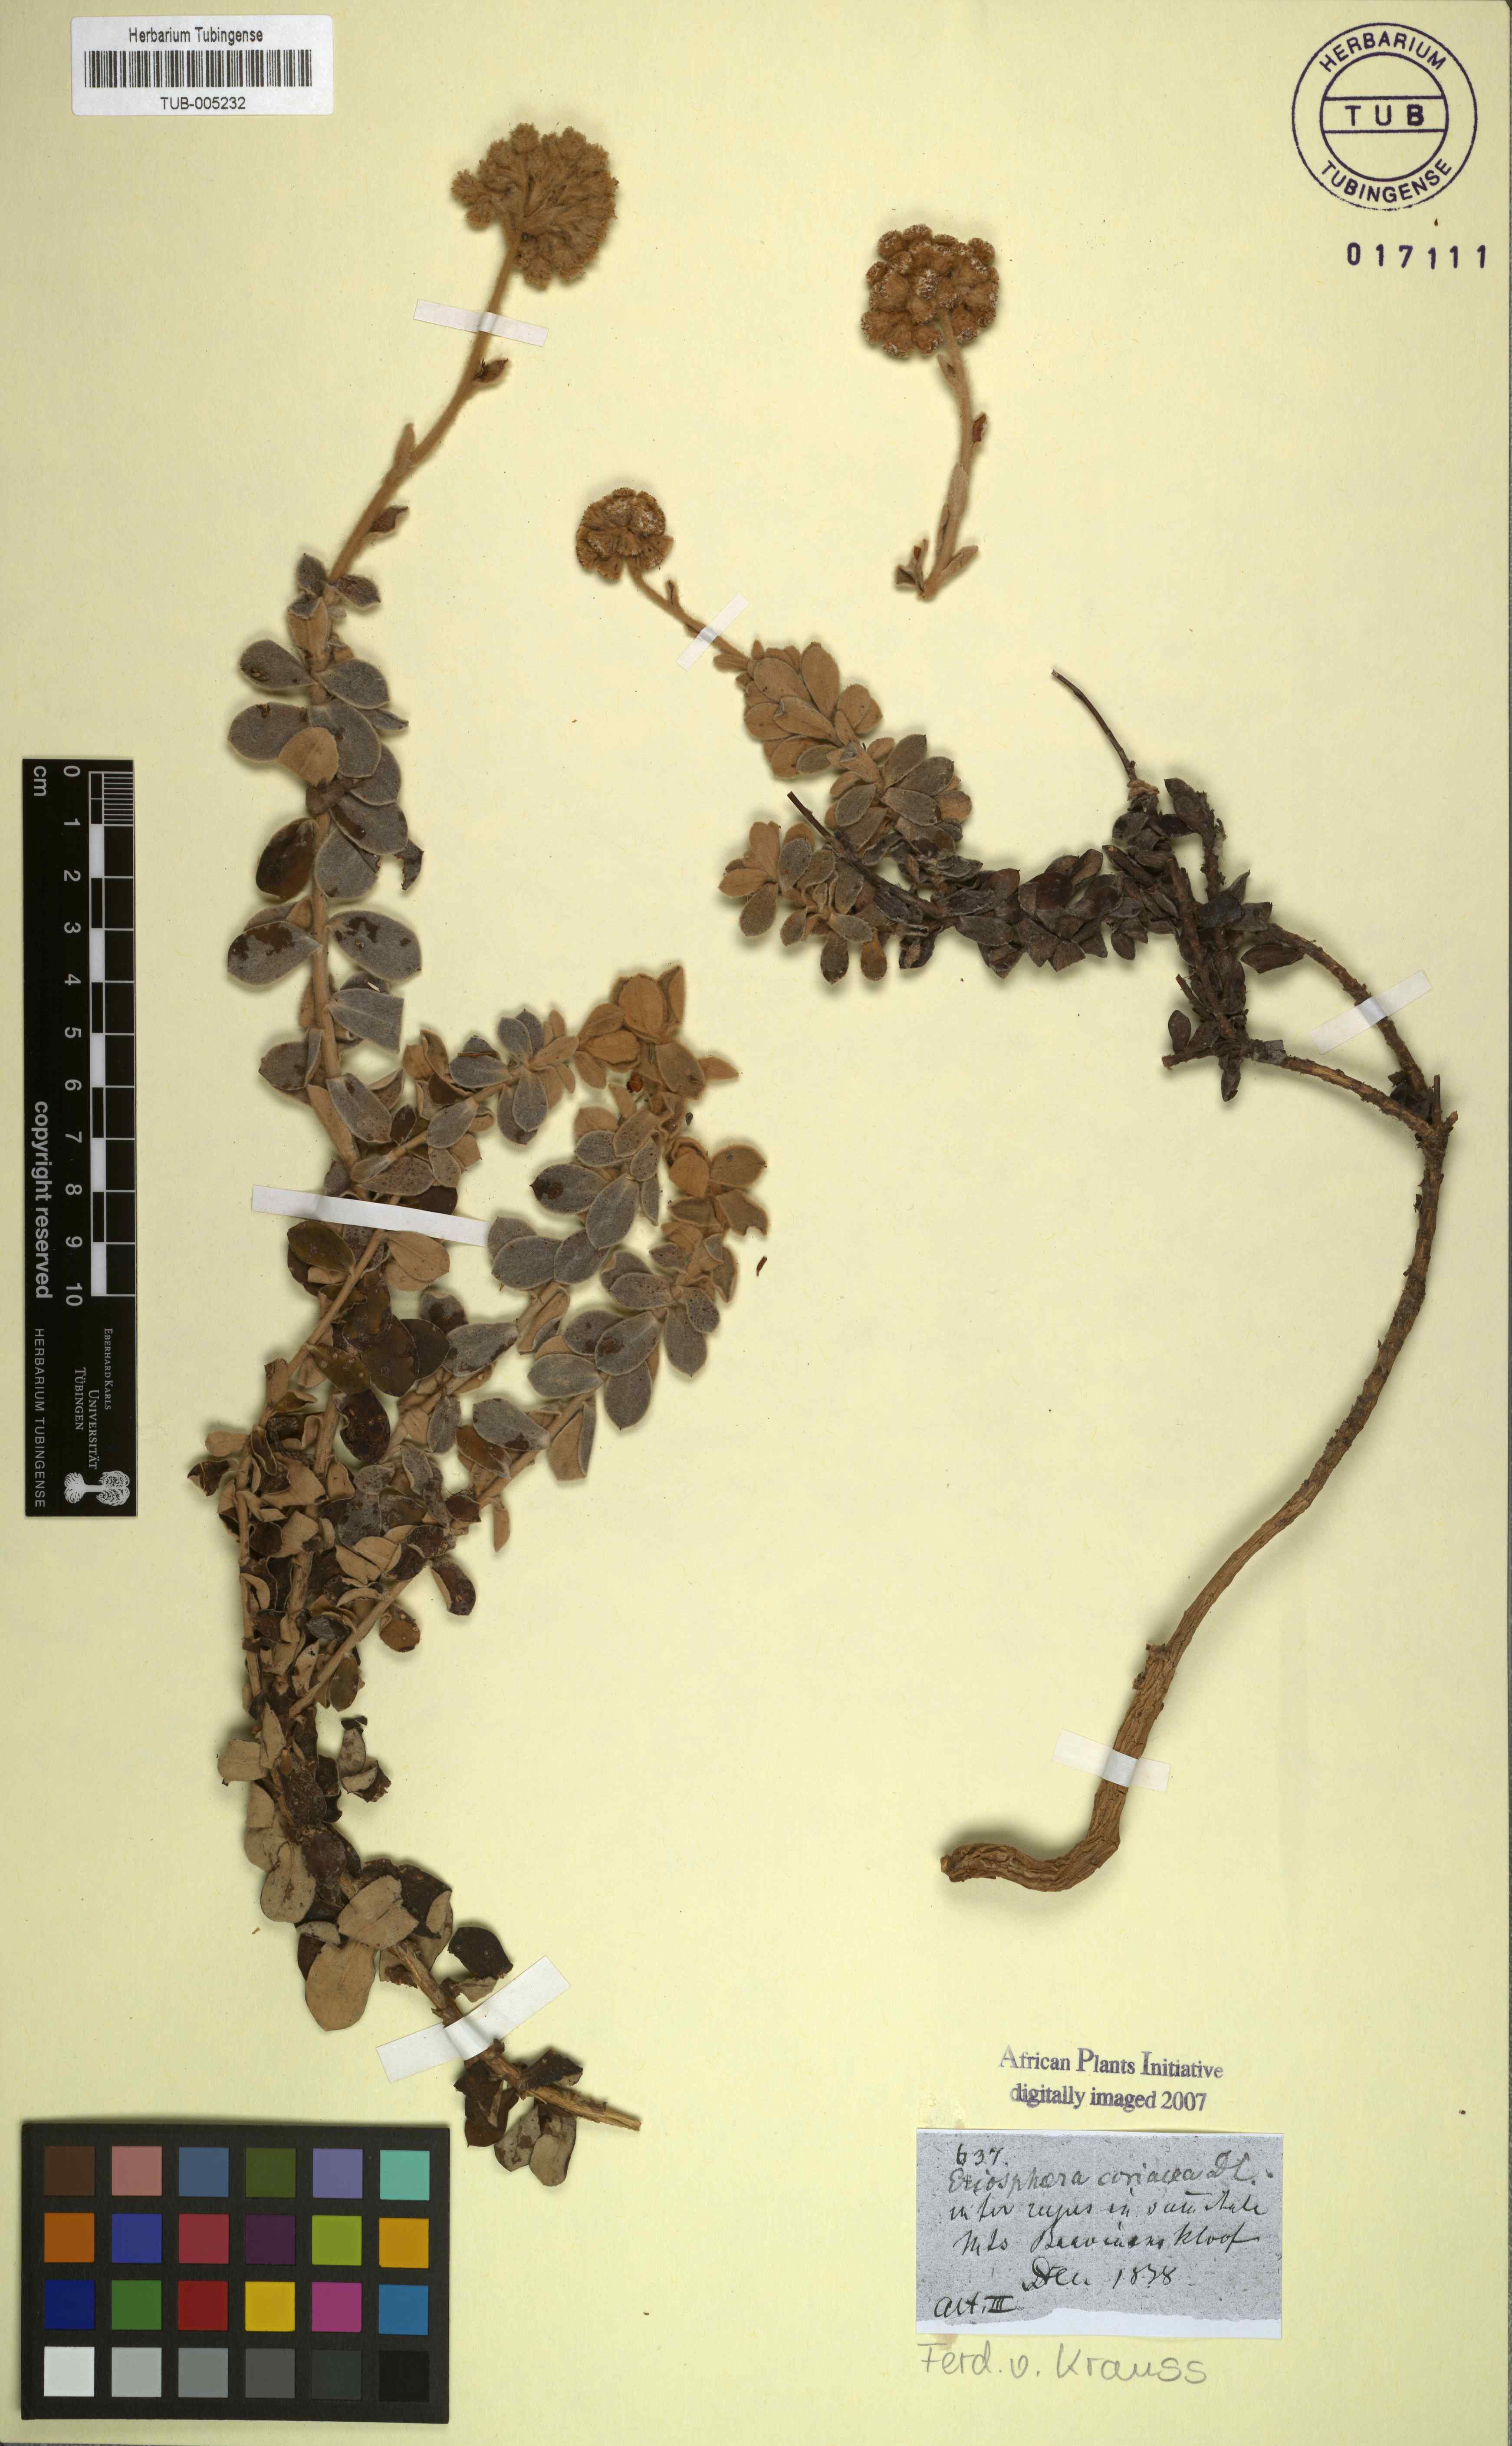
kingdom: Plantae
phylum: Tracheophyta
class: Magnoliopsida
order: Asterales
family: Asteraceae
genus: Helichrysum
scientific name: Helichrysum rotundatum
